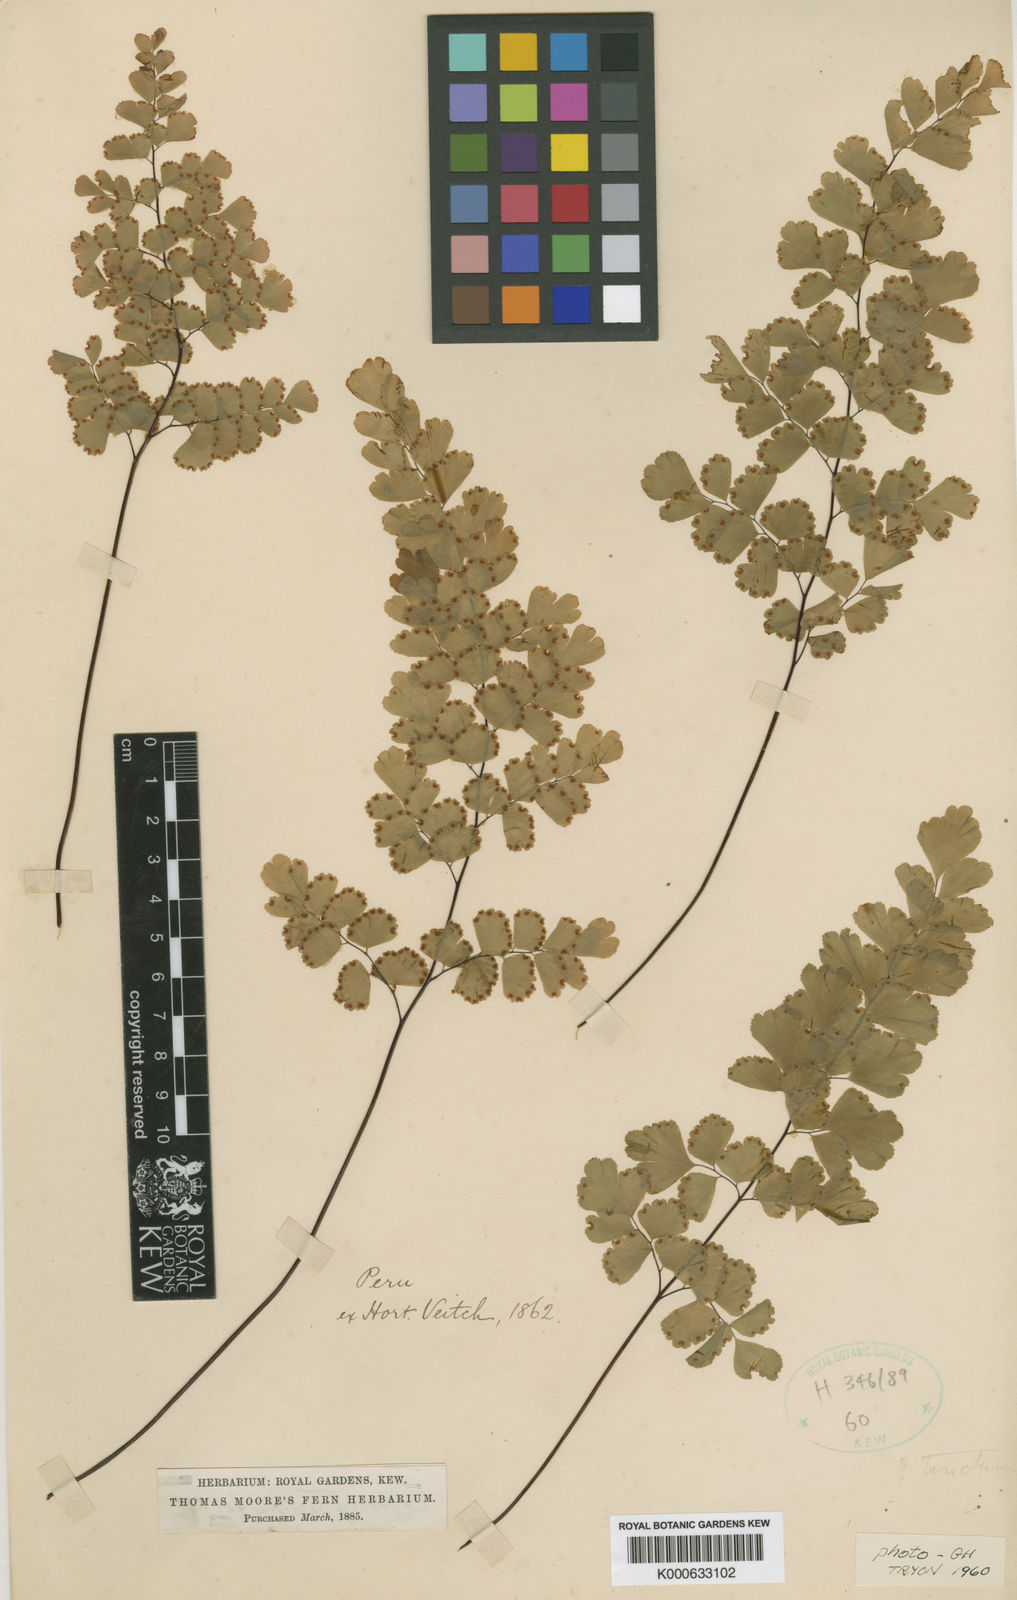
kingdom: Plantae
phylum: Tracheophyta
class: Polypodiopsida
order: Polypodiales
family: Pteridaceae
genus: Adiantum
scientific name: Adiantum raddianum
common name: Delta maidenhair fern
